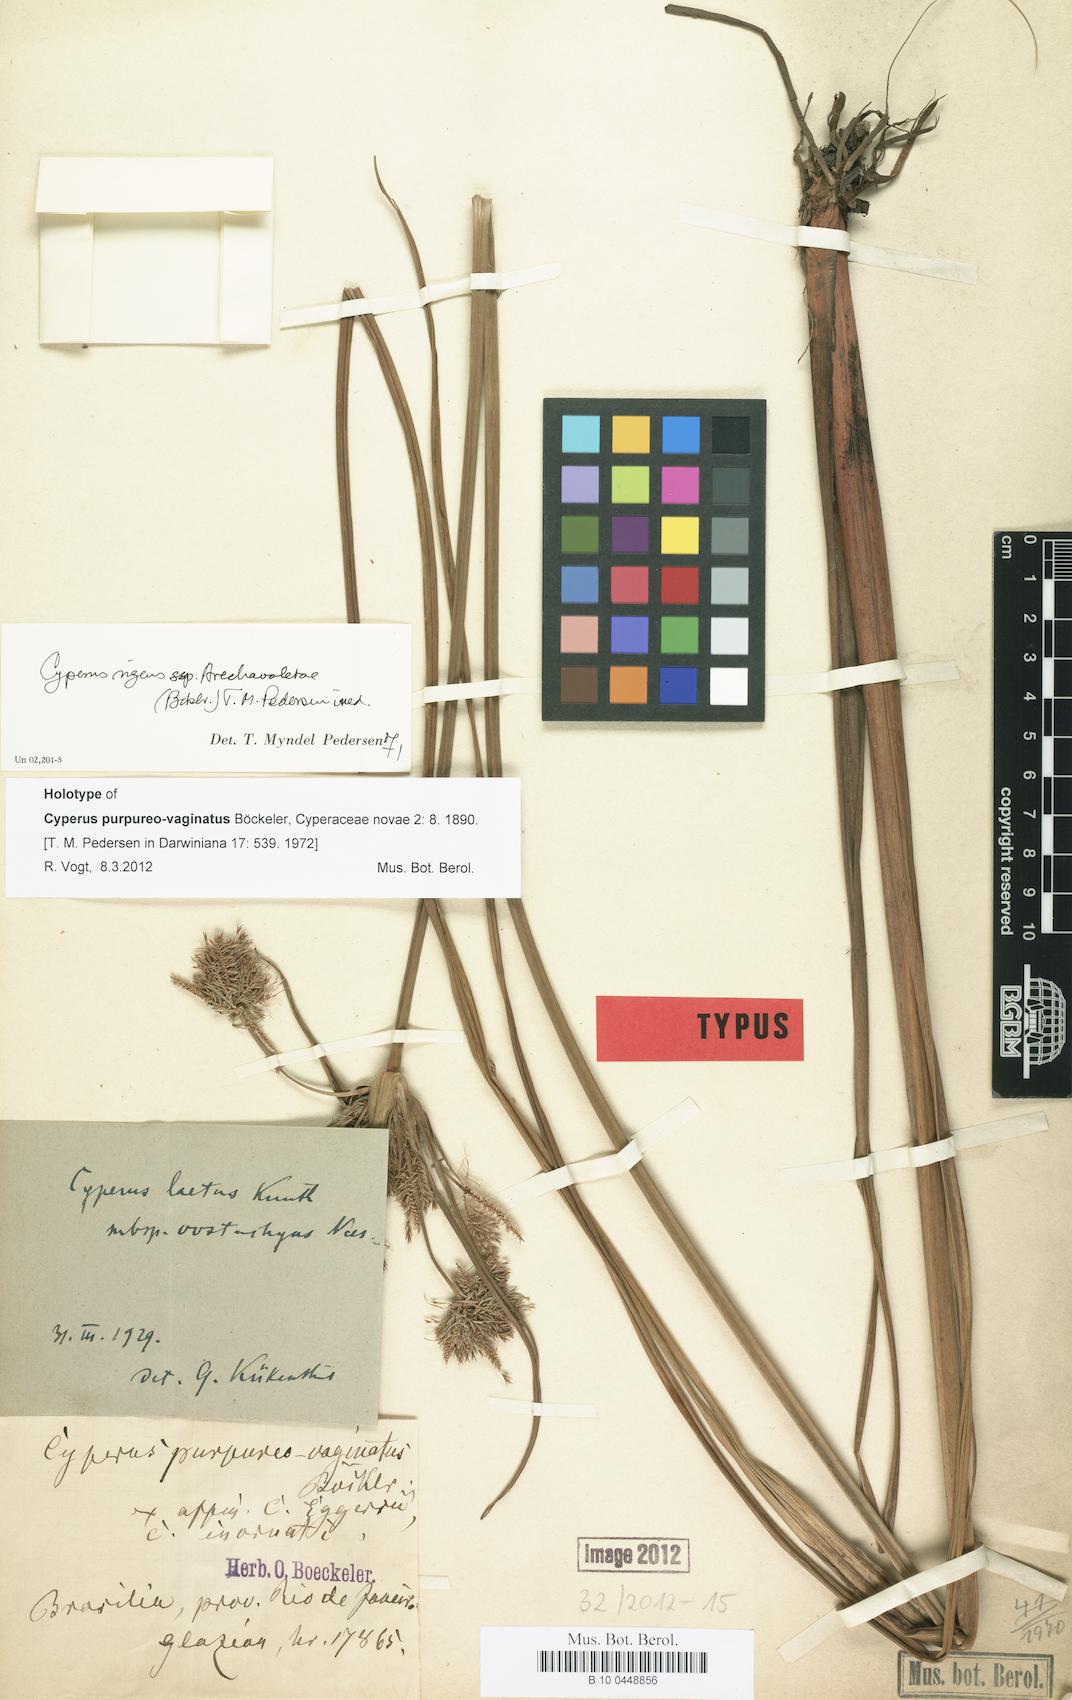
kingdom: Plantae
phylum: Tracheophyta
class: Liliopsida
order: Poales
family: Cyperaceae
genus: Cyperus
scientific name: Cyperus laetus
